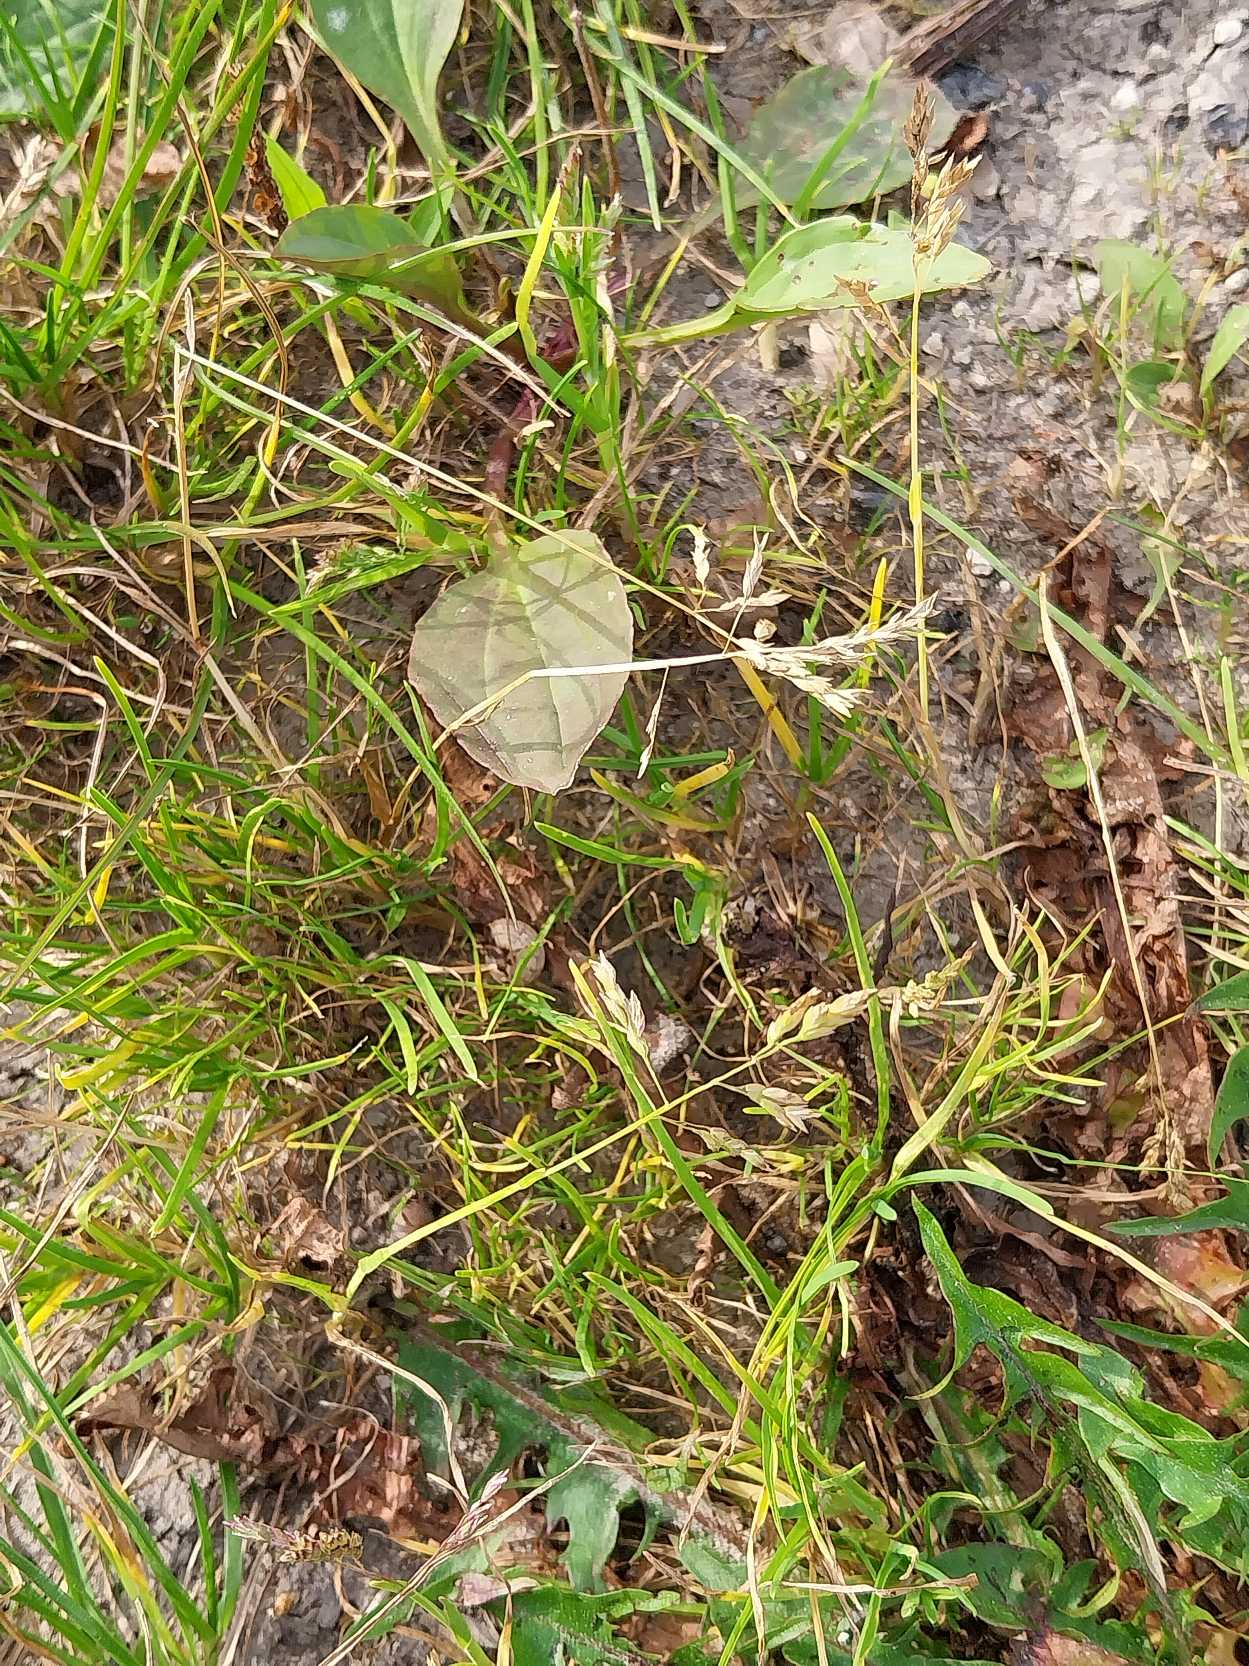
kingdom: Plantae
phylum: Tracheophyta
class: Liliopsida
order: Poales
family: Poaceae
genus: Poa
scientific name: Poa annua
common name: Enårig rapgræs
